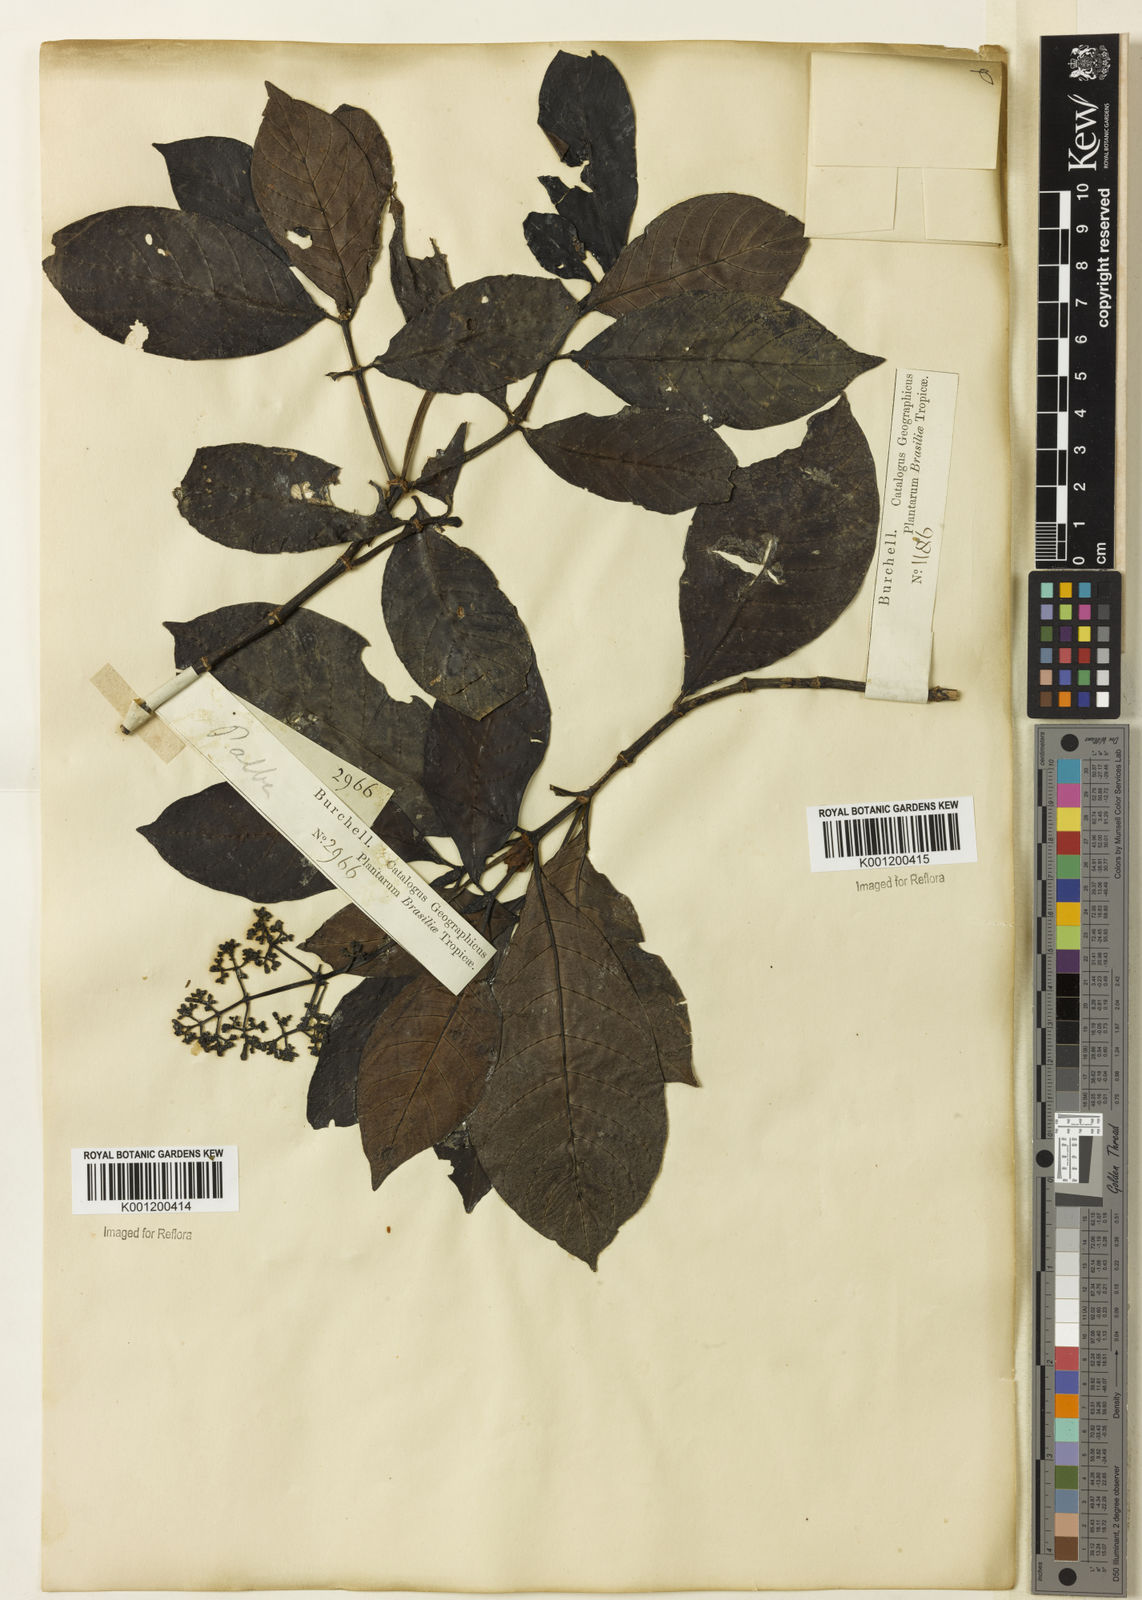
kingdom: Plantae
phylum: Tracheophyta
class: Magnoliopsida
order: Gentianales
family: Rubiaceae
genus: Psychotria
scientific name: Psychotria carthagenensis
